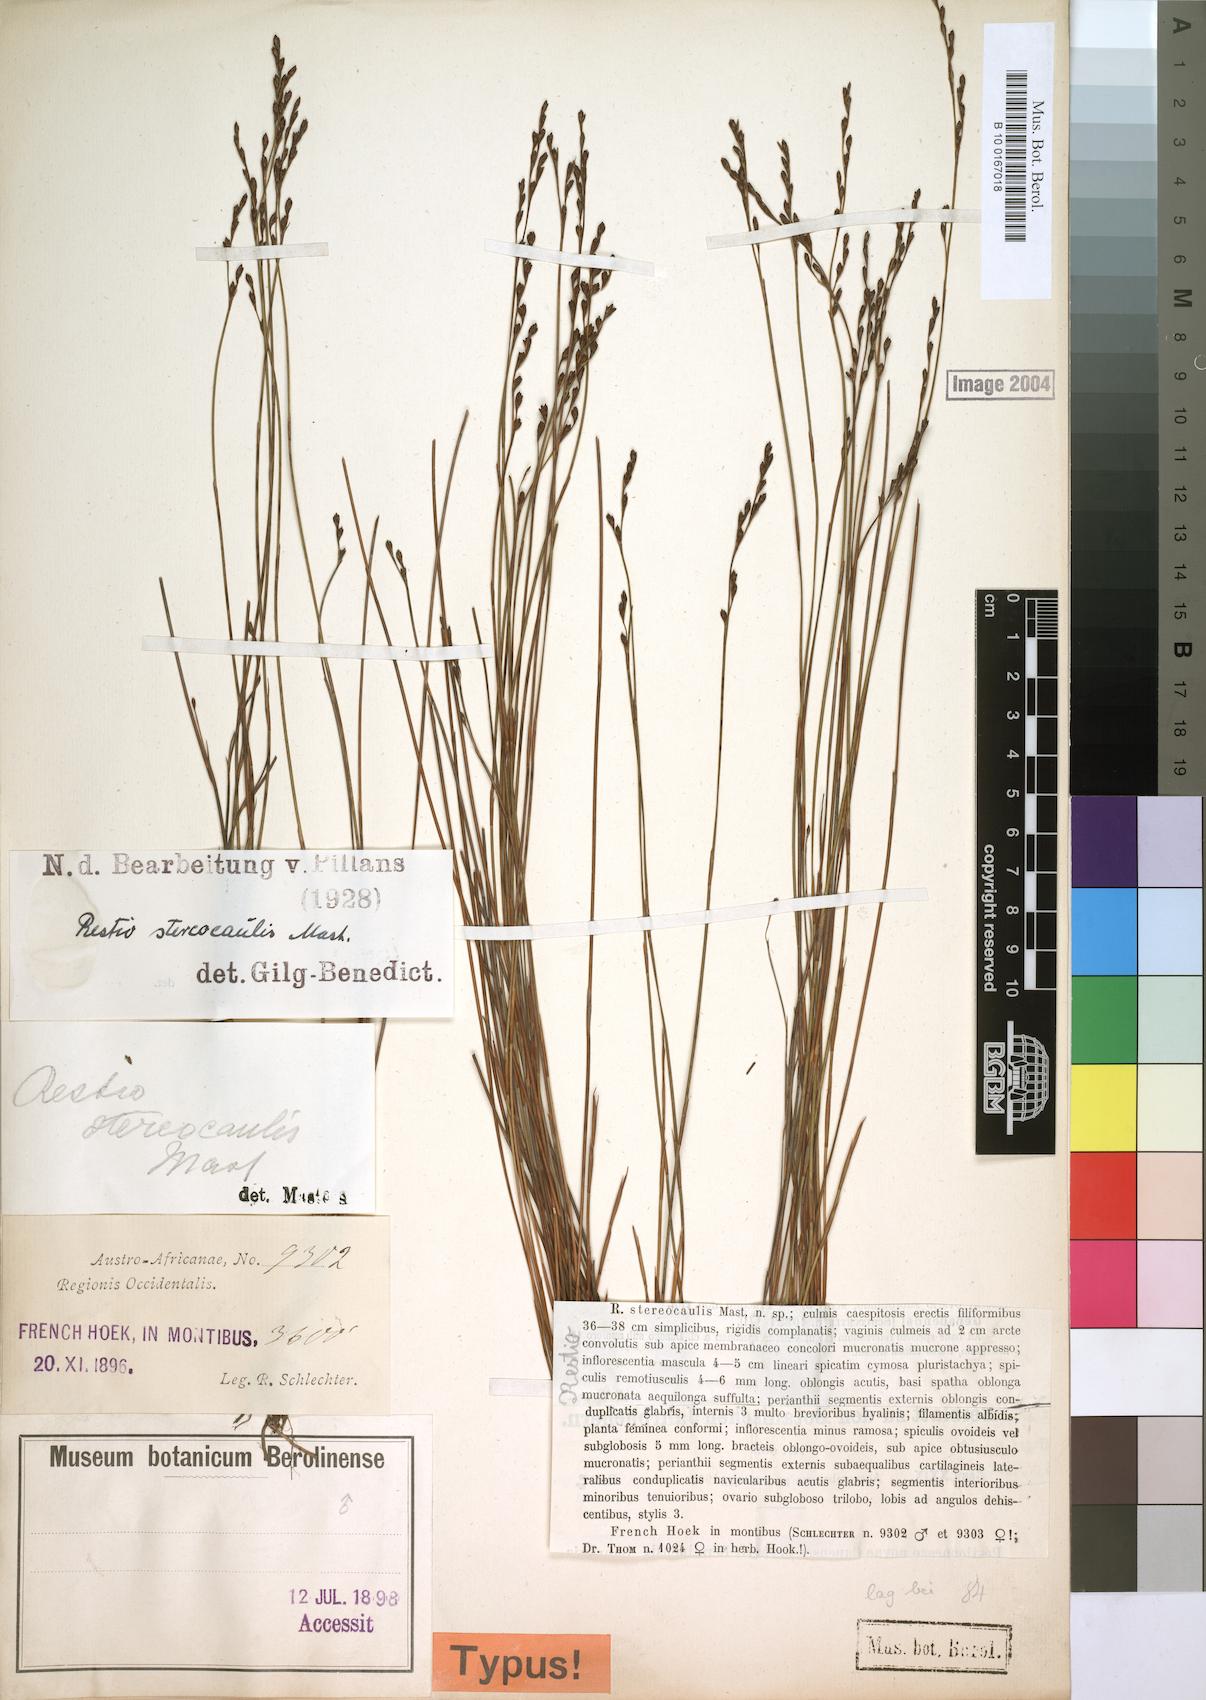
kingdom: Plantae
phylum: Tracheophyta
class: Liliopsida
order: Poales
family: Restionaceae
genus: Restio
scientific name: Restio stereocaulis
